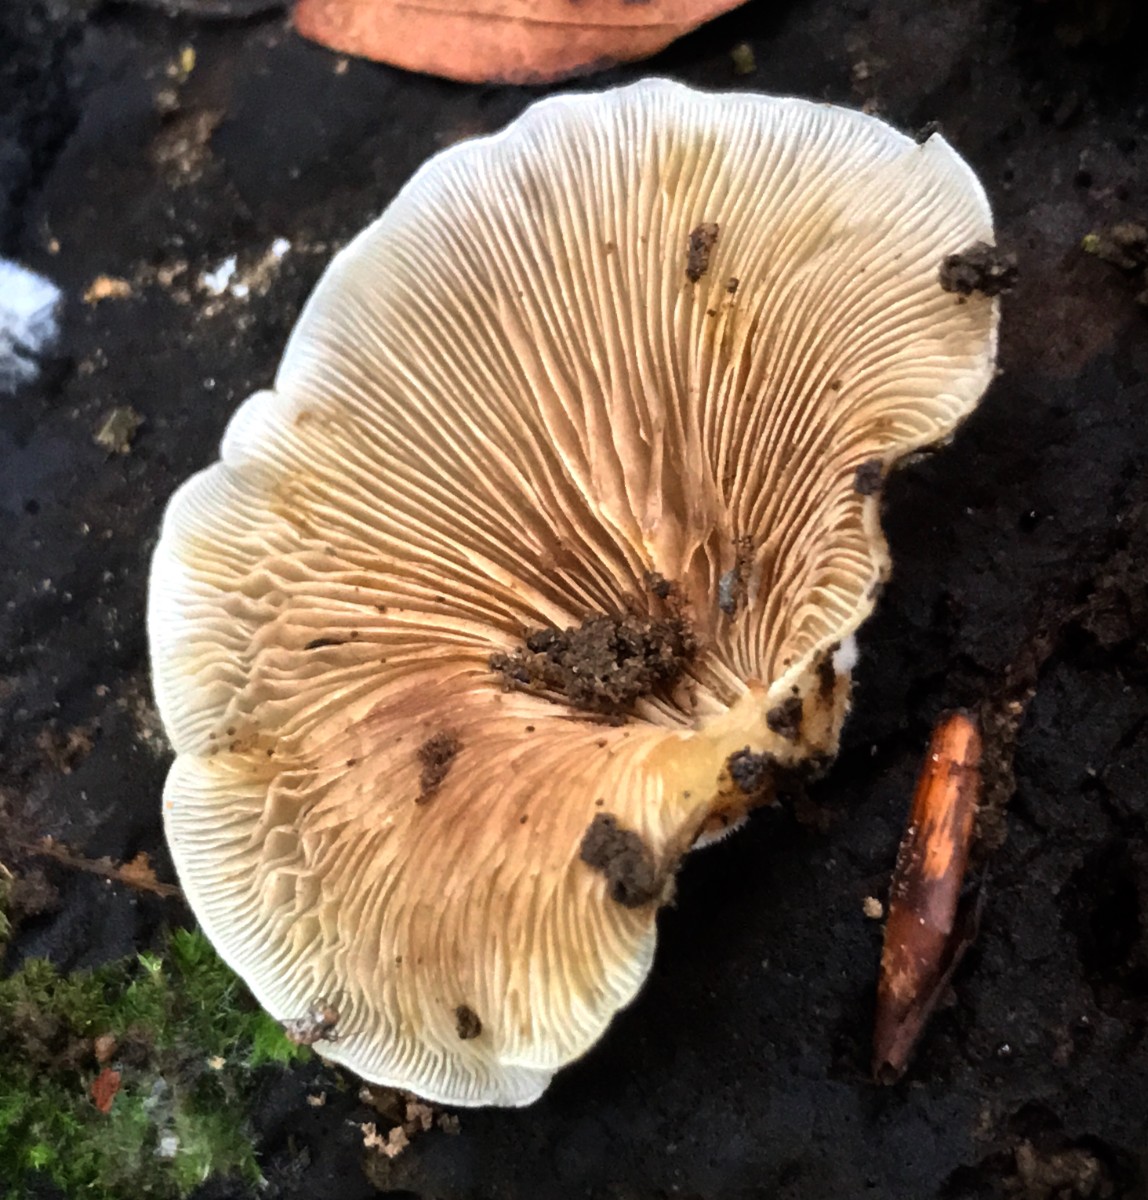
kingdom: Fungi
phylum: Basidiomycota
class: Agaricomycetes
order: Agaricales
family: Crepidotaceae
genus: Crepidotus
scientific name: Crepidotus mollis
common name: blød muslingesvamp
